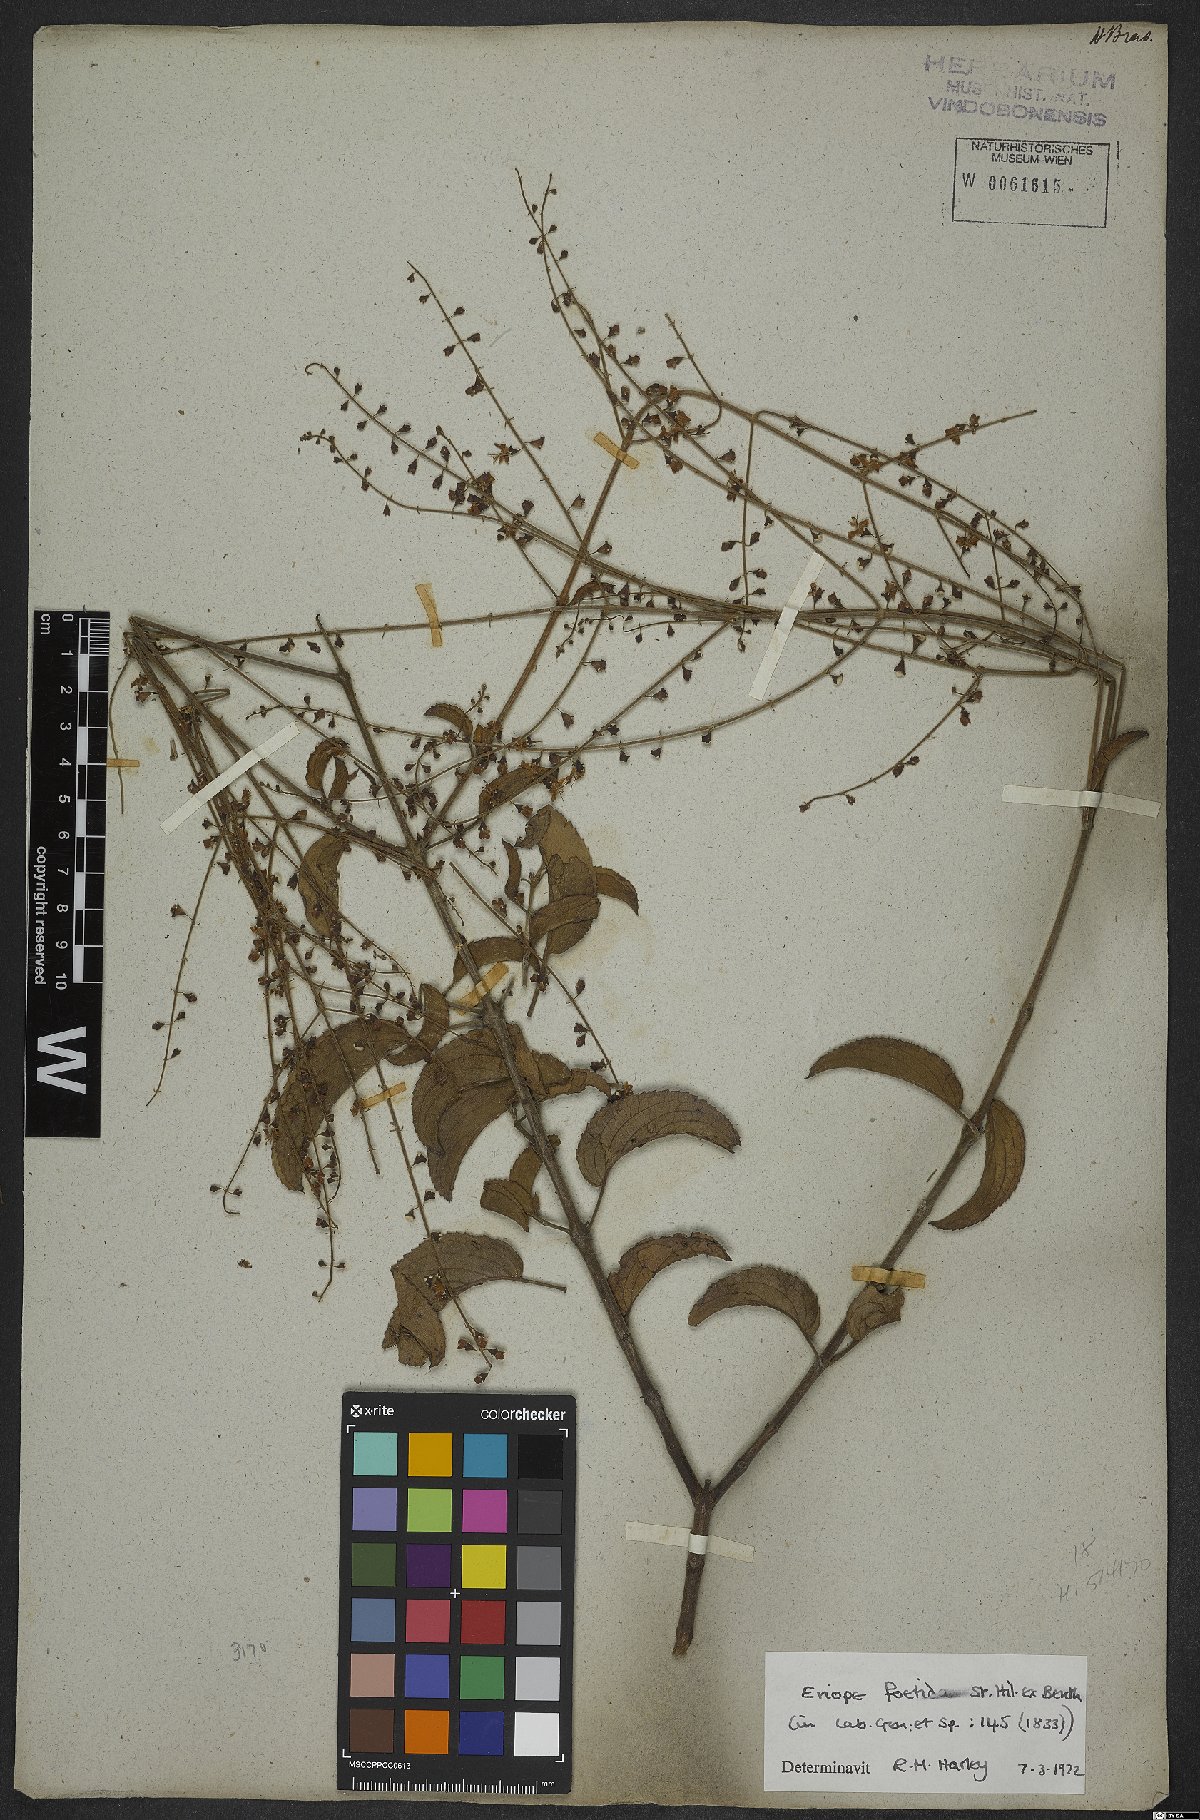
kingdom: Plantae
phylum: Tracheophyta
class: Magnoliopsida
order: Lamiales
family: Lamiaceae
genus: Eriope
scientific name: Eriope foetida
